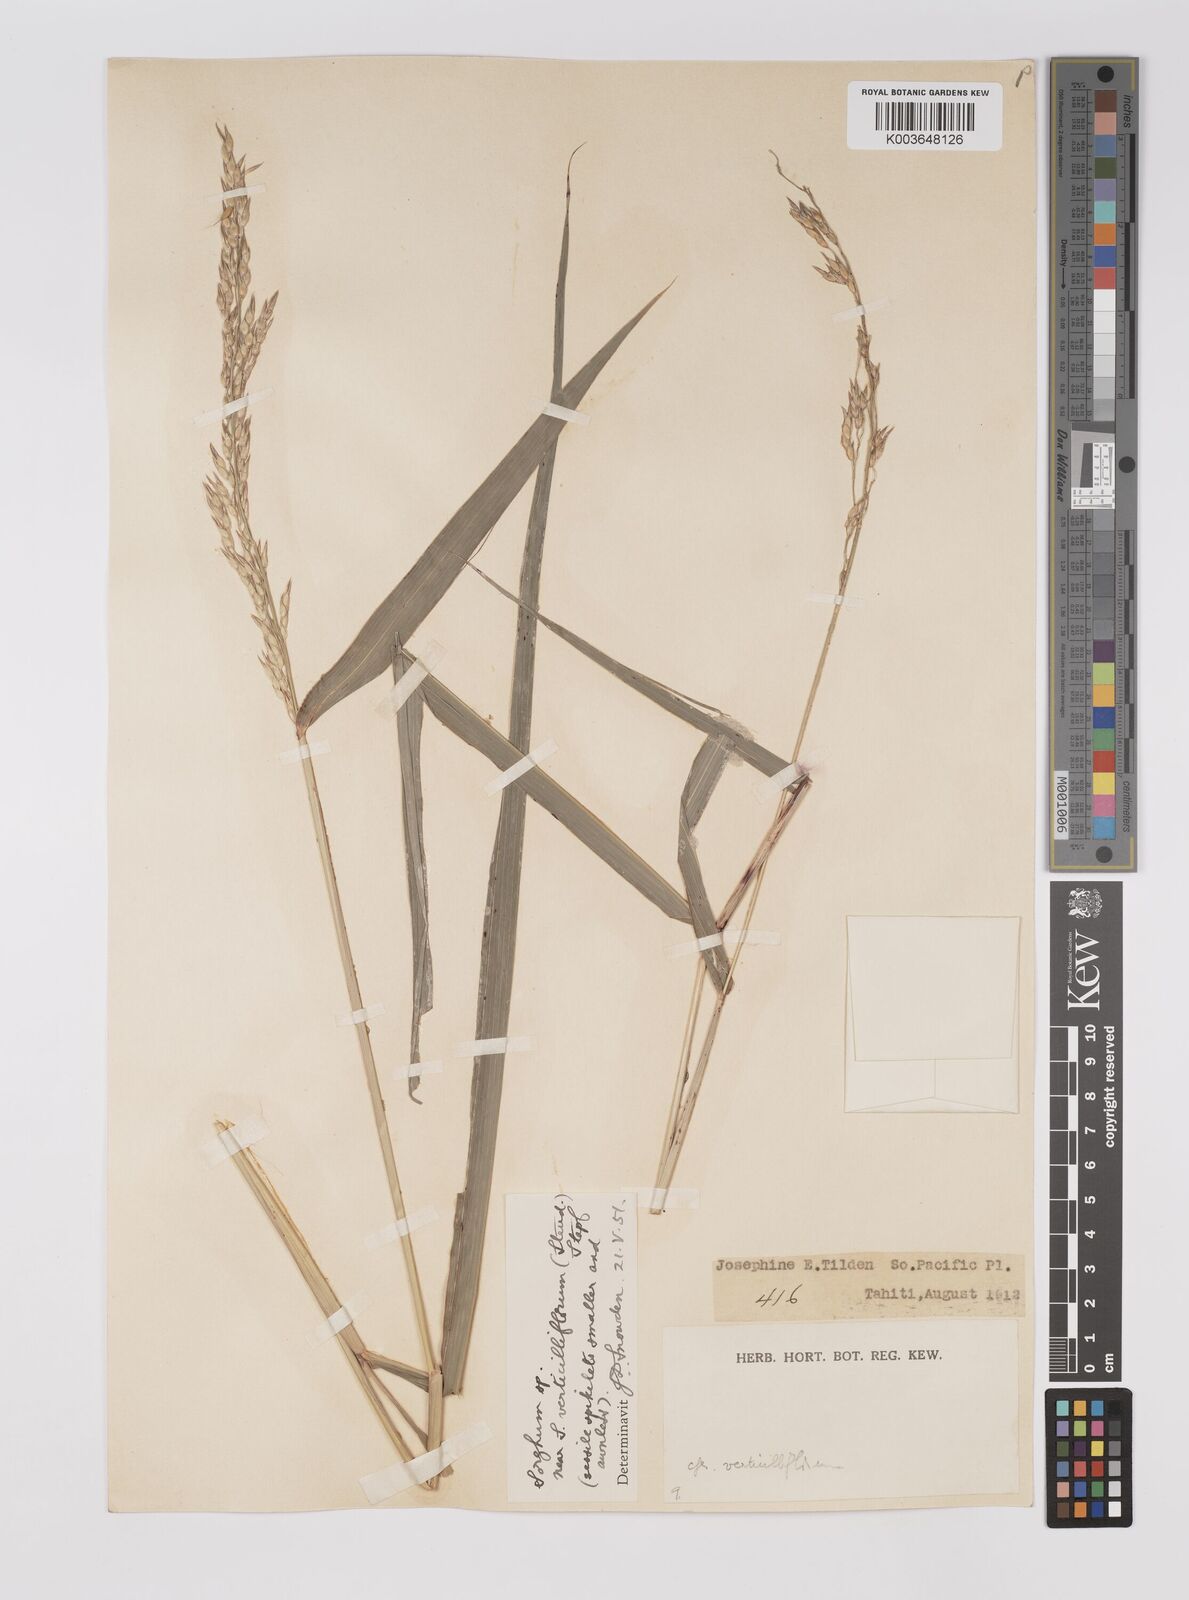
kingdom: Plantae
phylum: Tracheophyta
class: Liliopsida
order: Poales
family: Poaceae
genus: Sorghum
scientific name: Sorghum arundinaceum
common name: Sorghum
